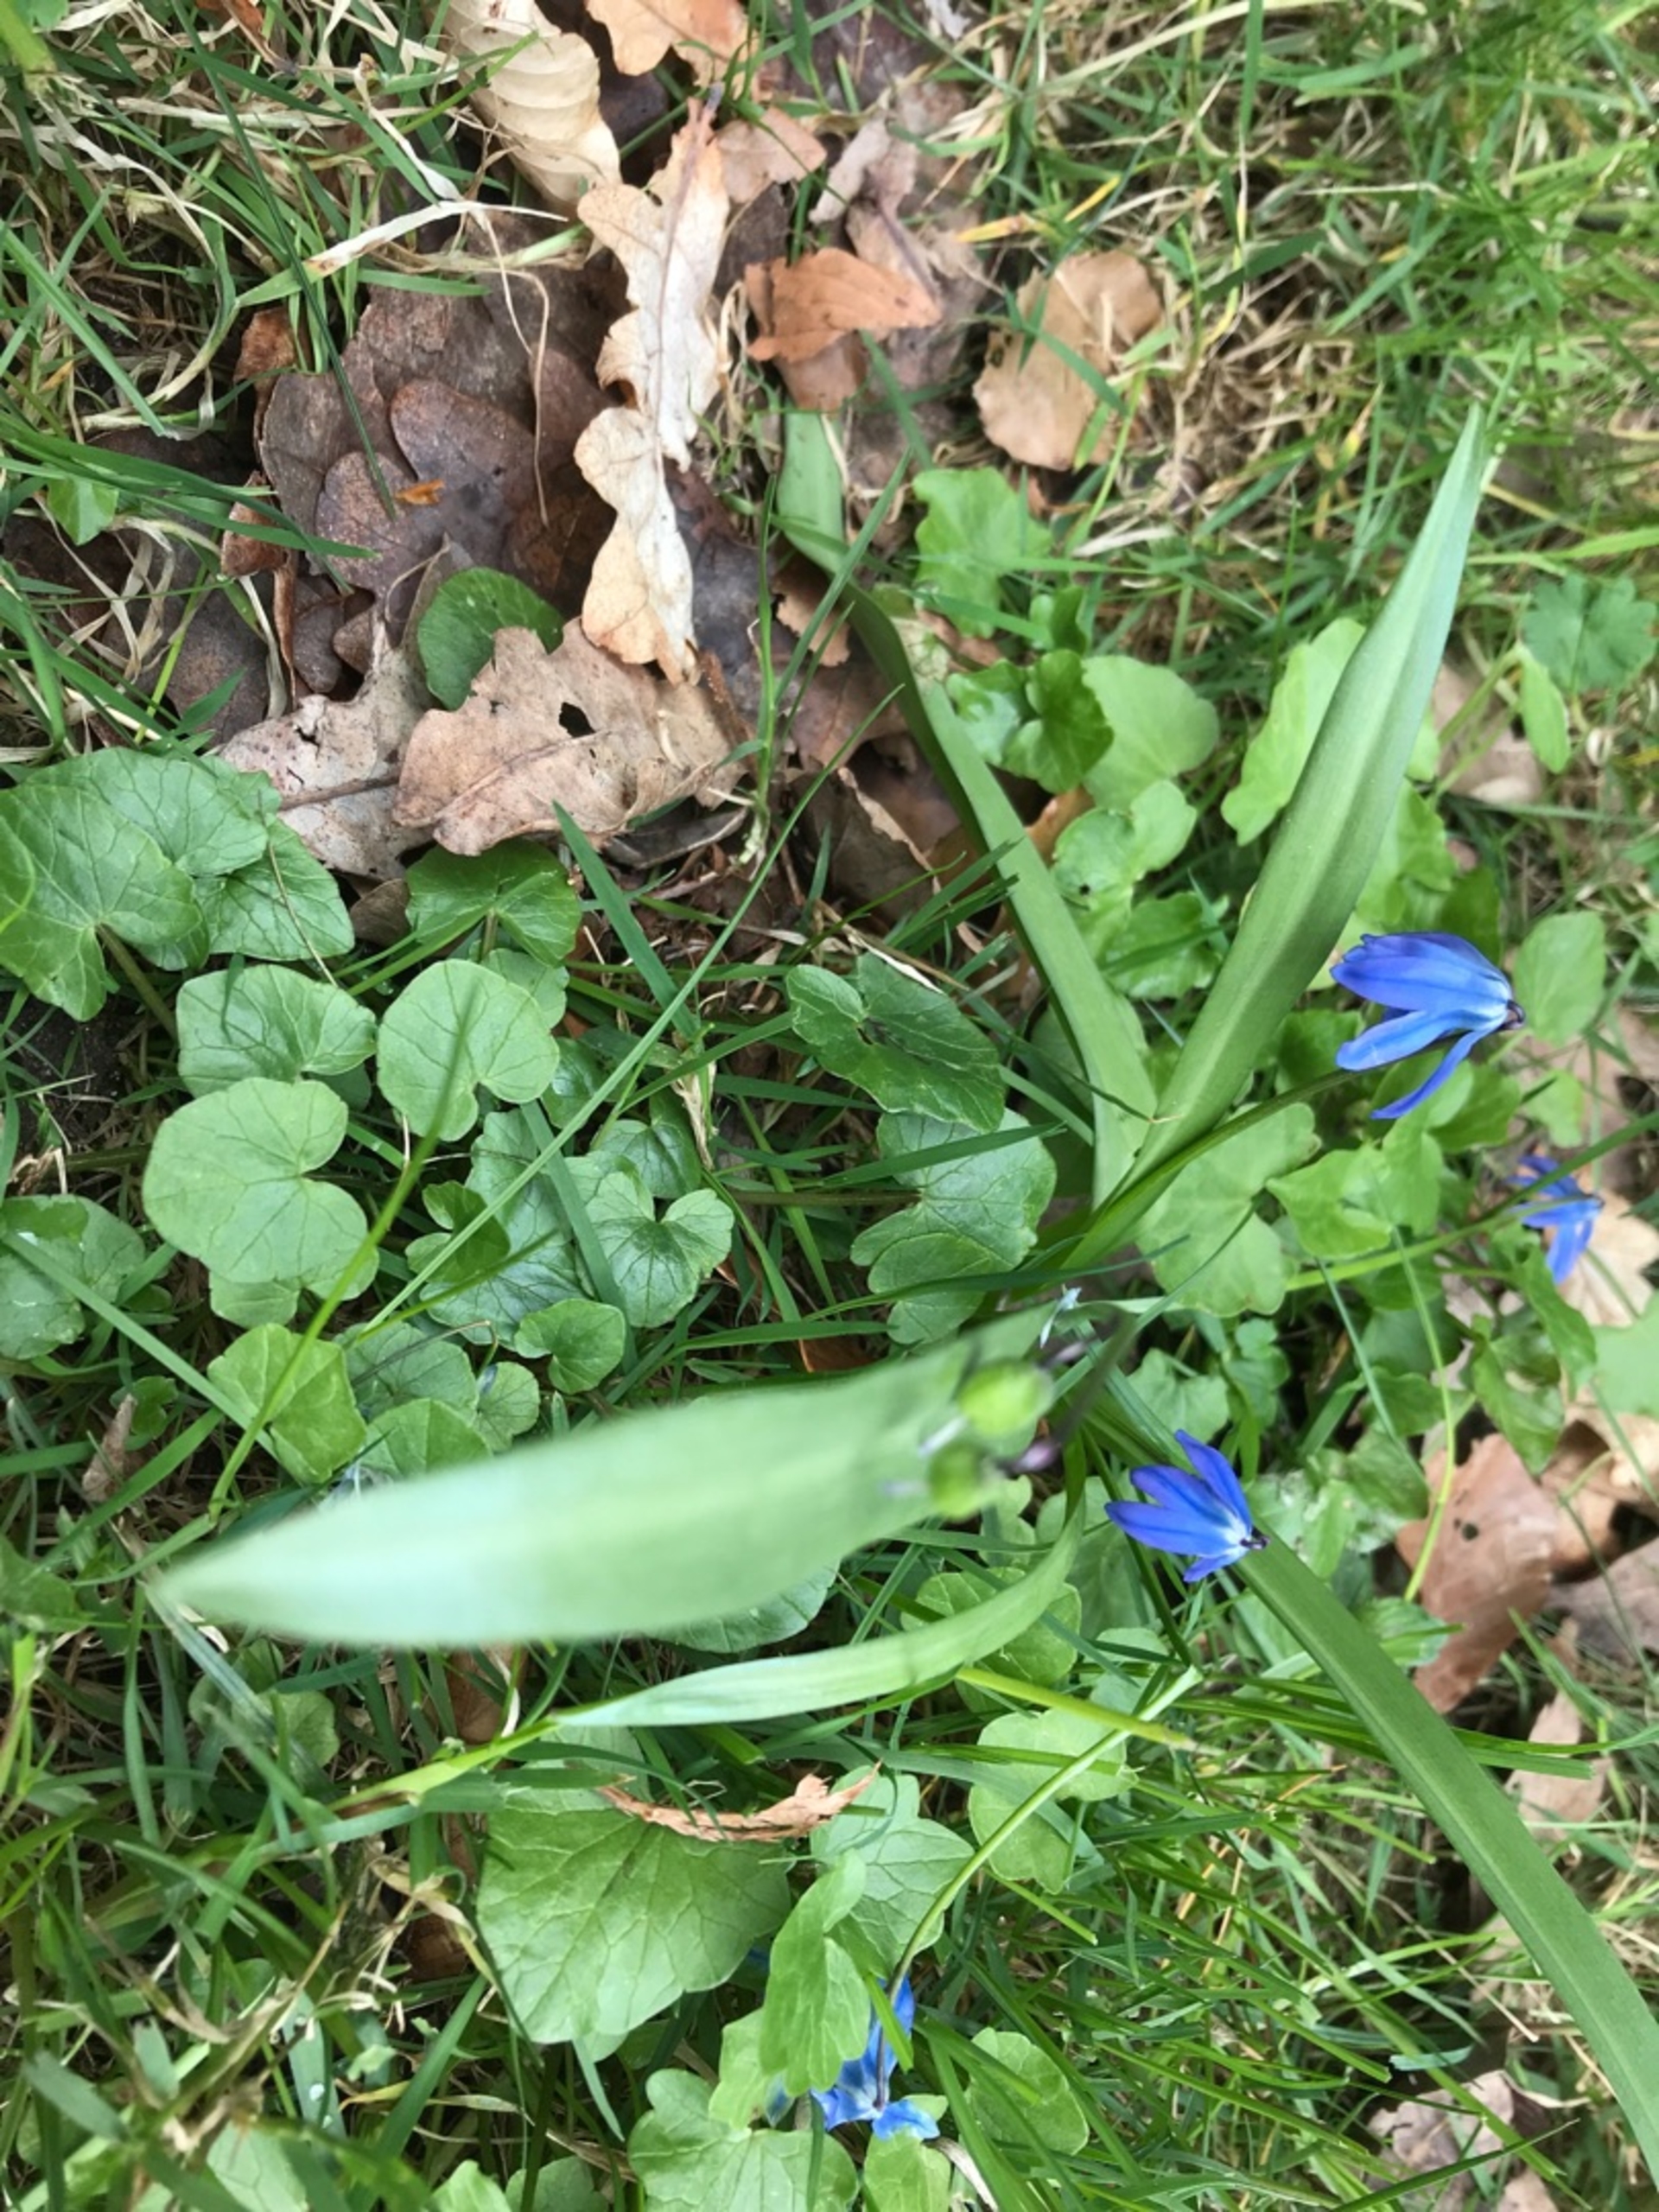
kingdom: Plantae
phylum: Tracheophyta
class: Liliopsida
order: Asparagales
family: Asparagaceae
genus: Scilla
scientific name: Scilla siberica
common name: Russisk skilla
